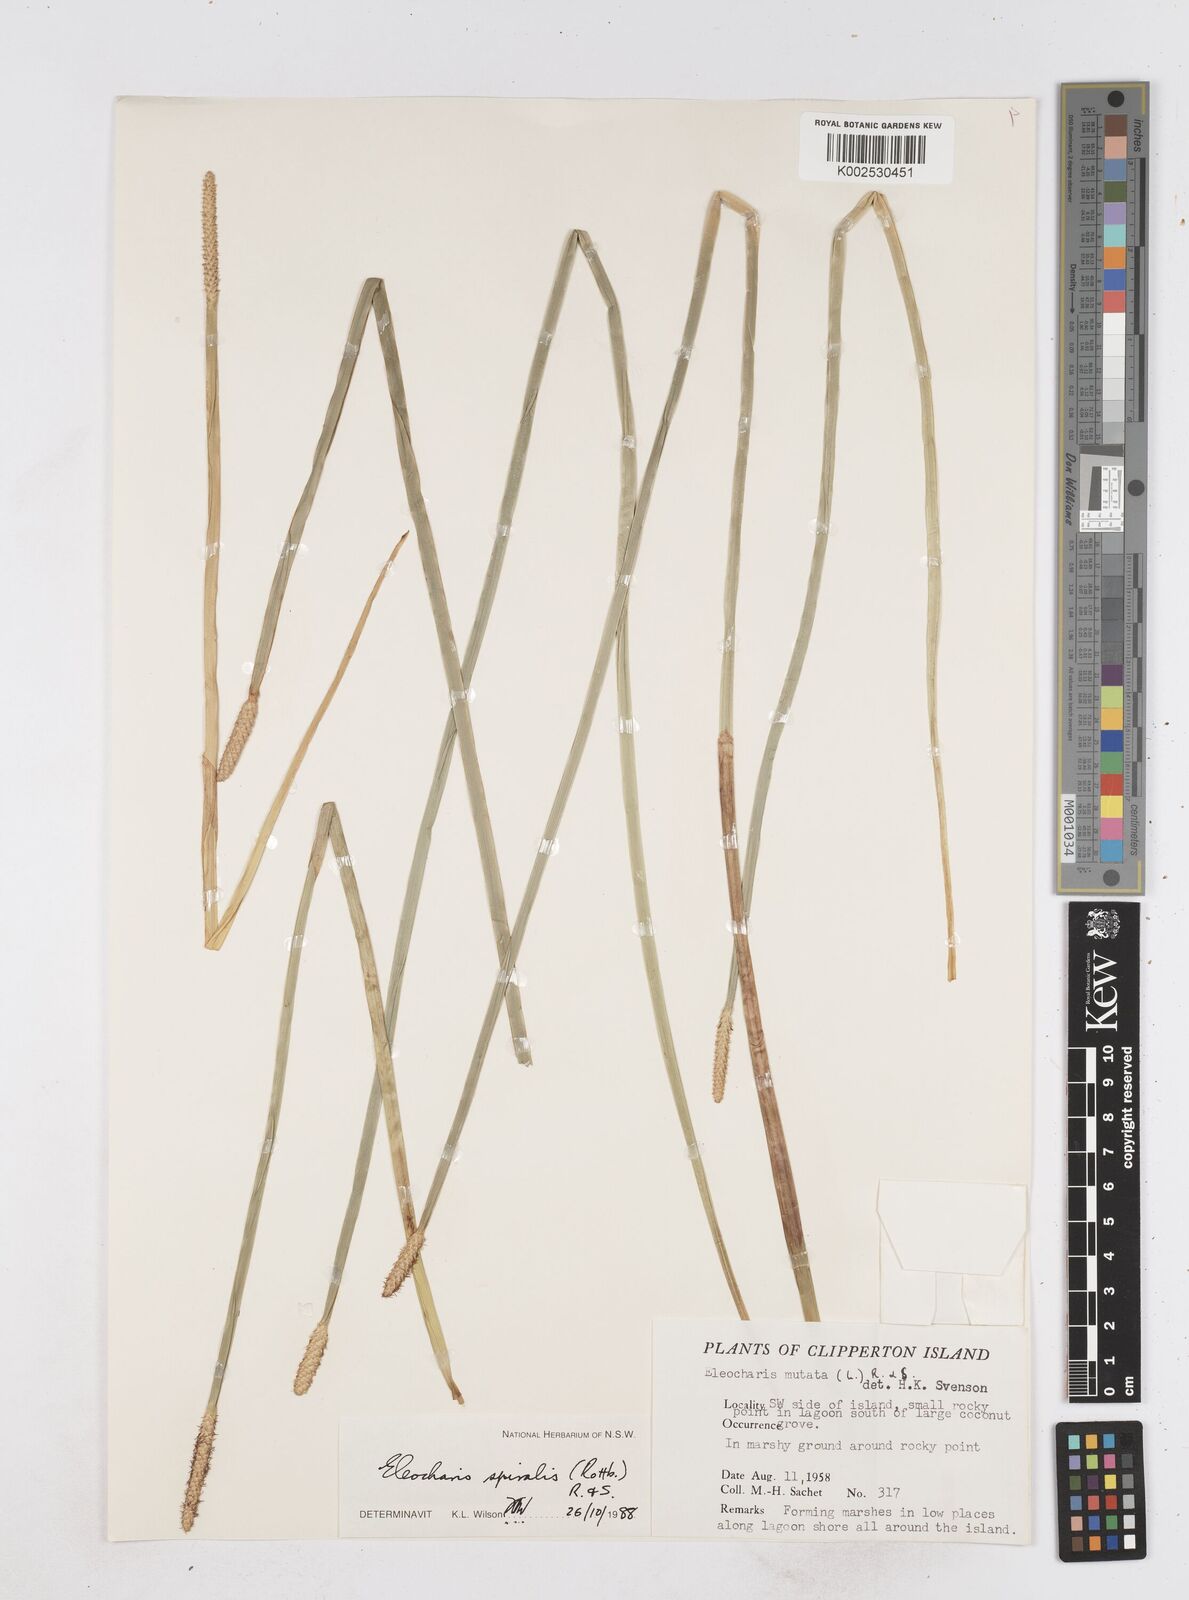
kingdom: Plantae
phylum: Tracheophyta
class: Liliopsida
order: Poales
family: Cyperaceae
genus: Eleocharis
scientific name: Eleocharis spiralis
